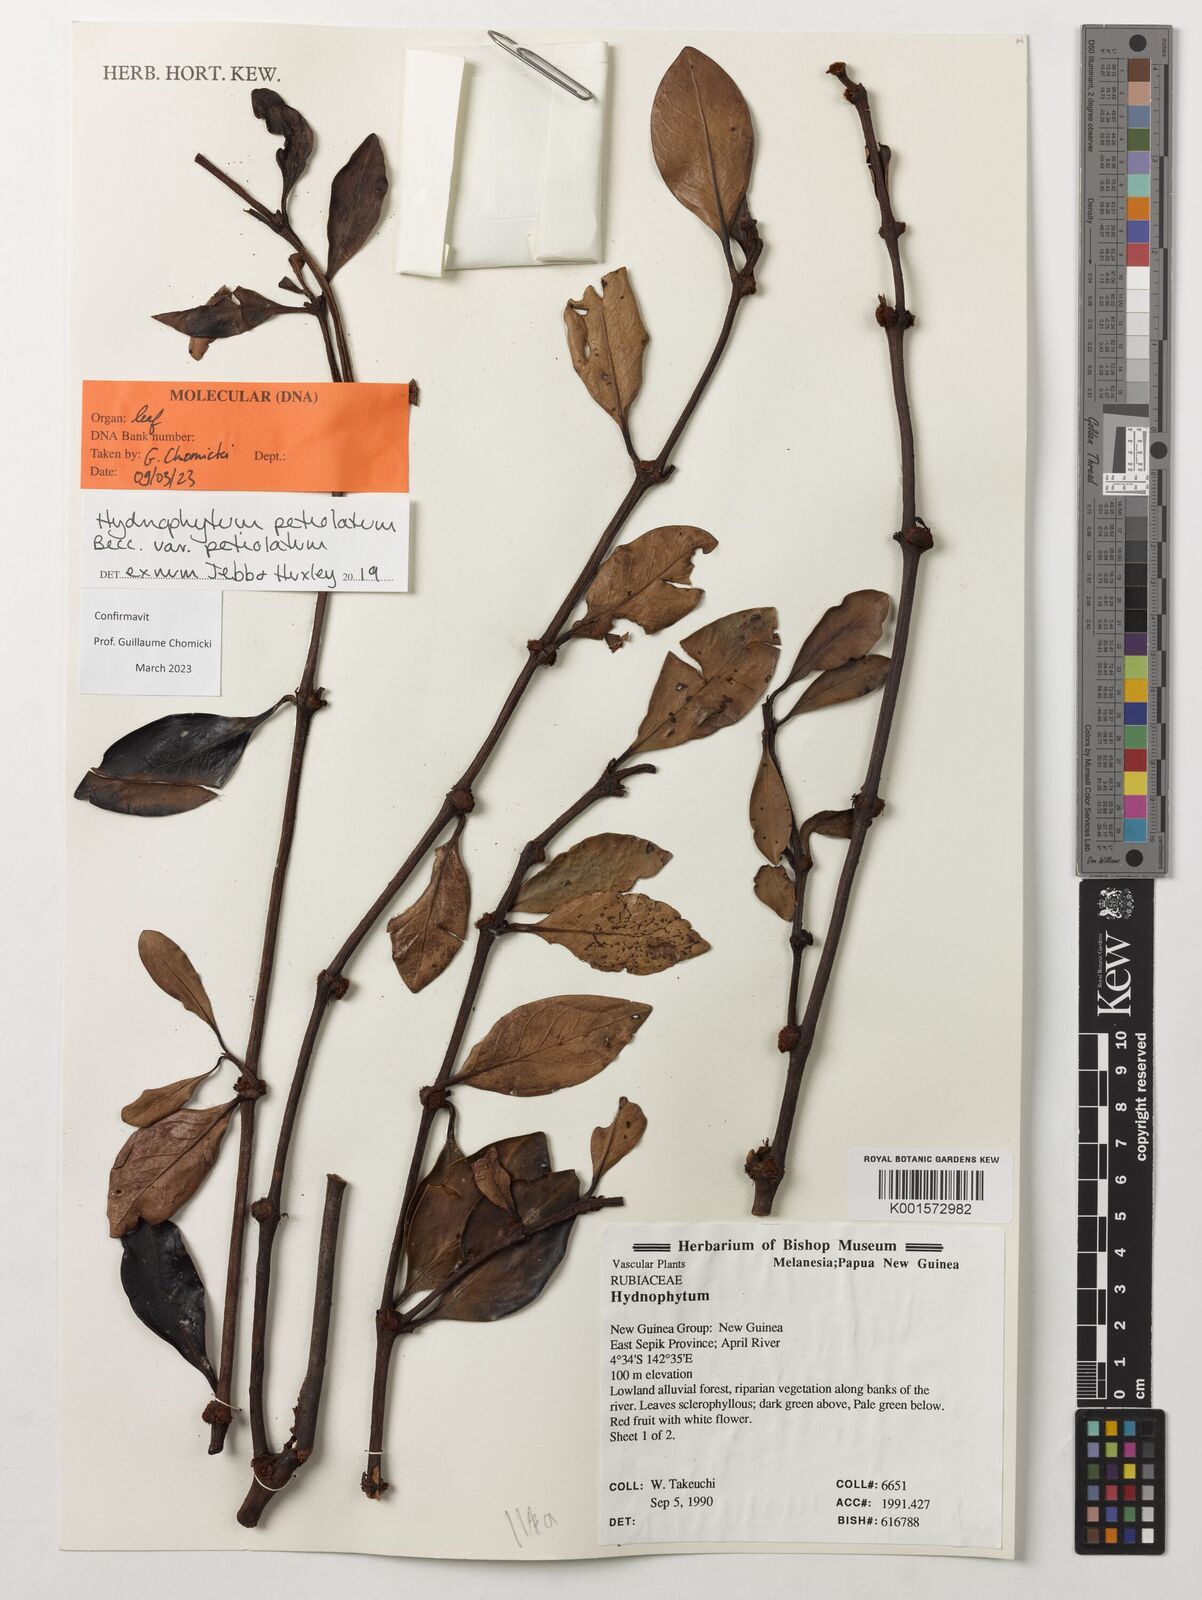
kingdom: Plantae
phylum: Tracheophyta
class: Magnoliopsida
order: Gentianales
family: Rubiaceae
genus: Hydnophytum
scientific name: Hydnophytum petiolatum
